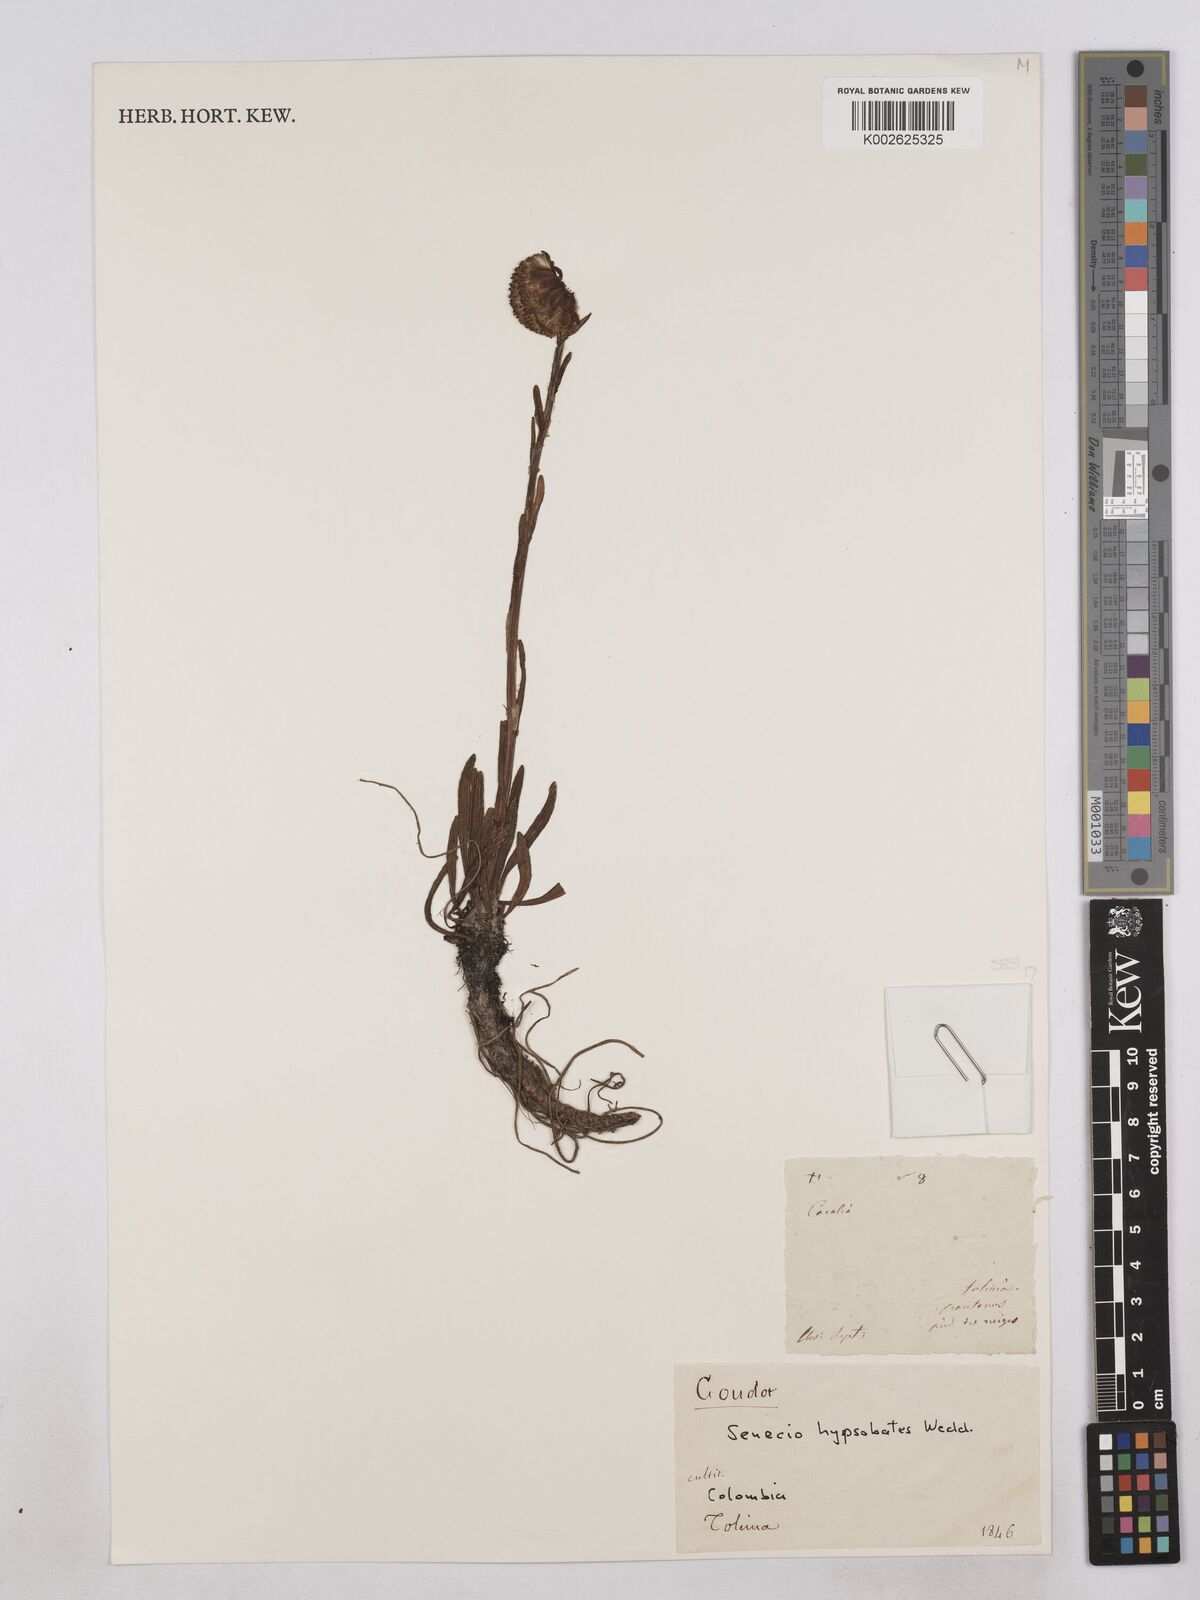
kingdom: Plantae
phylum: Tracheophyta
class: Magnoliopsida
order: Asterales
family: Asteraceae
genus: Senecio
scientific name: Senecio hypsobates
